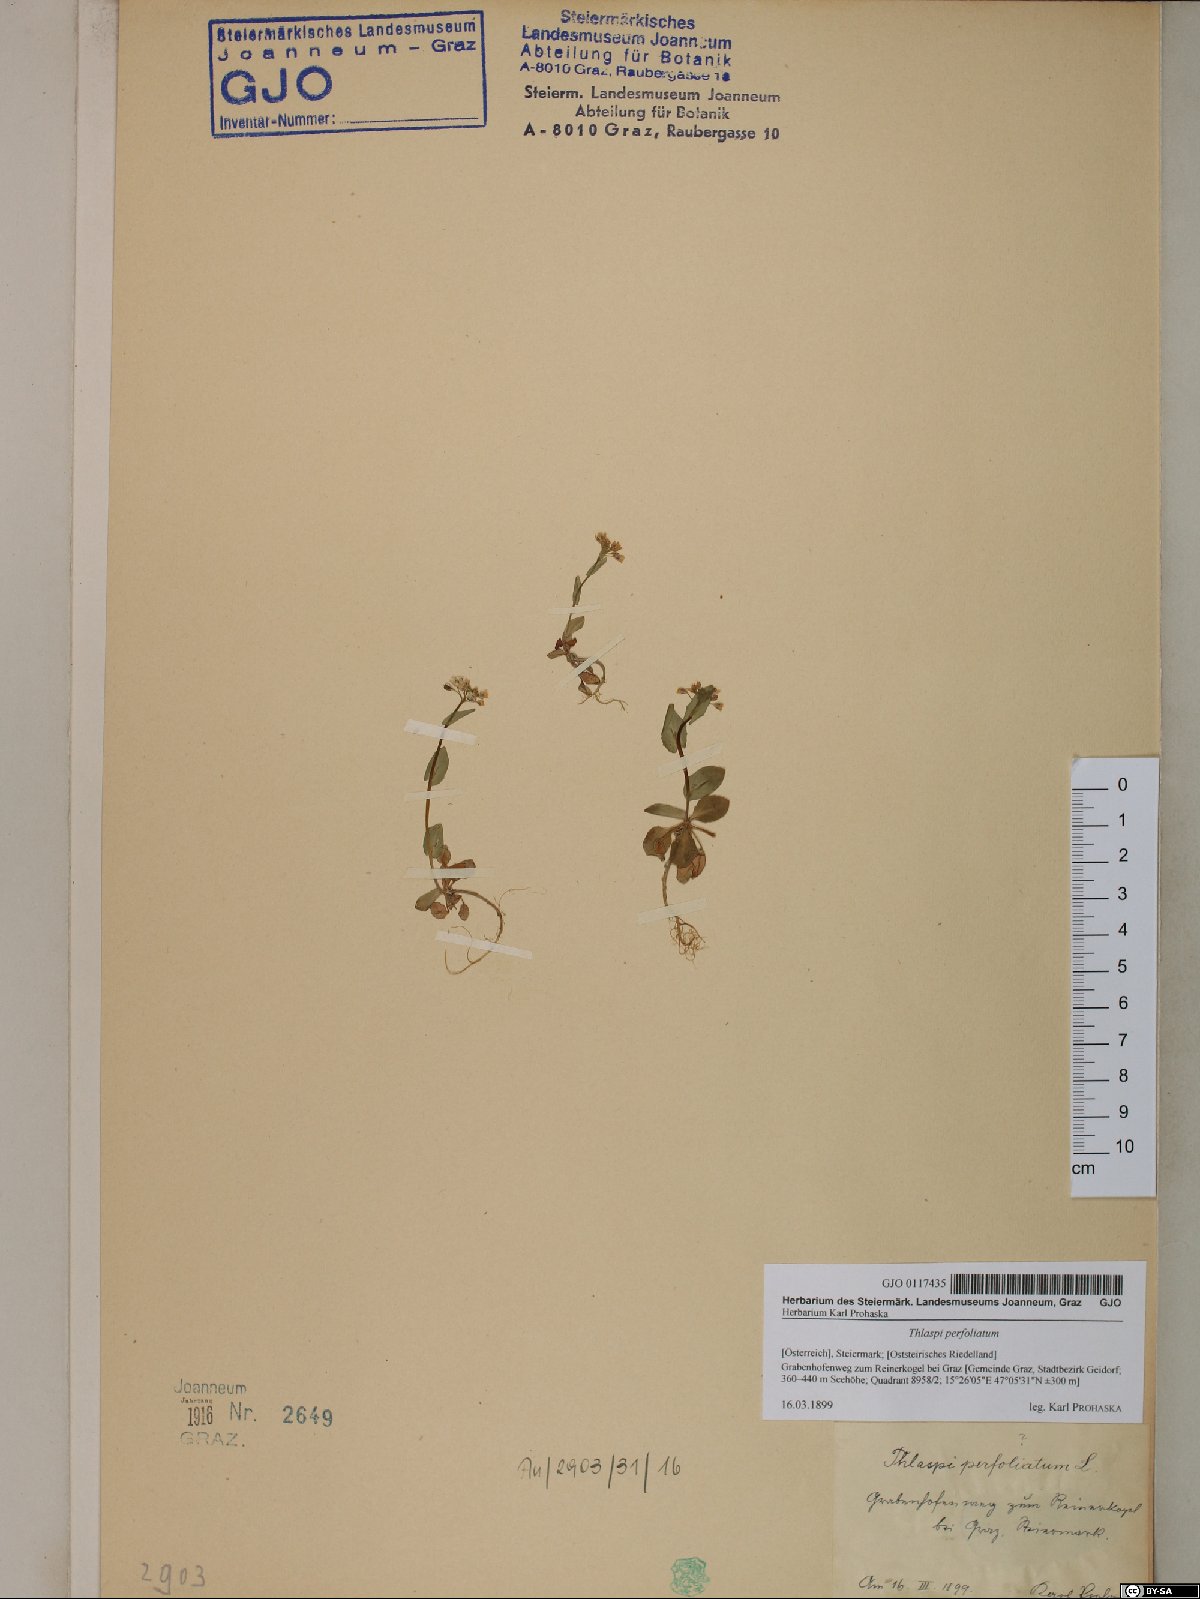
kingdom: Plantae
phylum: Tracheophyta
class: Magnoliopsida
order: Brassicales
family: Brassicaceae
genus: Noccaea
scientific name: Noccaea perfoliata
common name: Perfoliate pennycress
